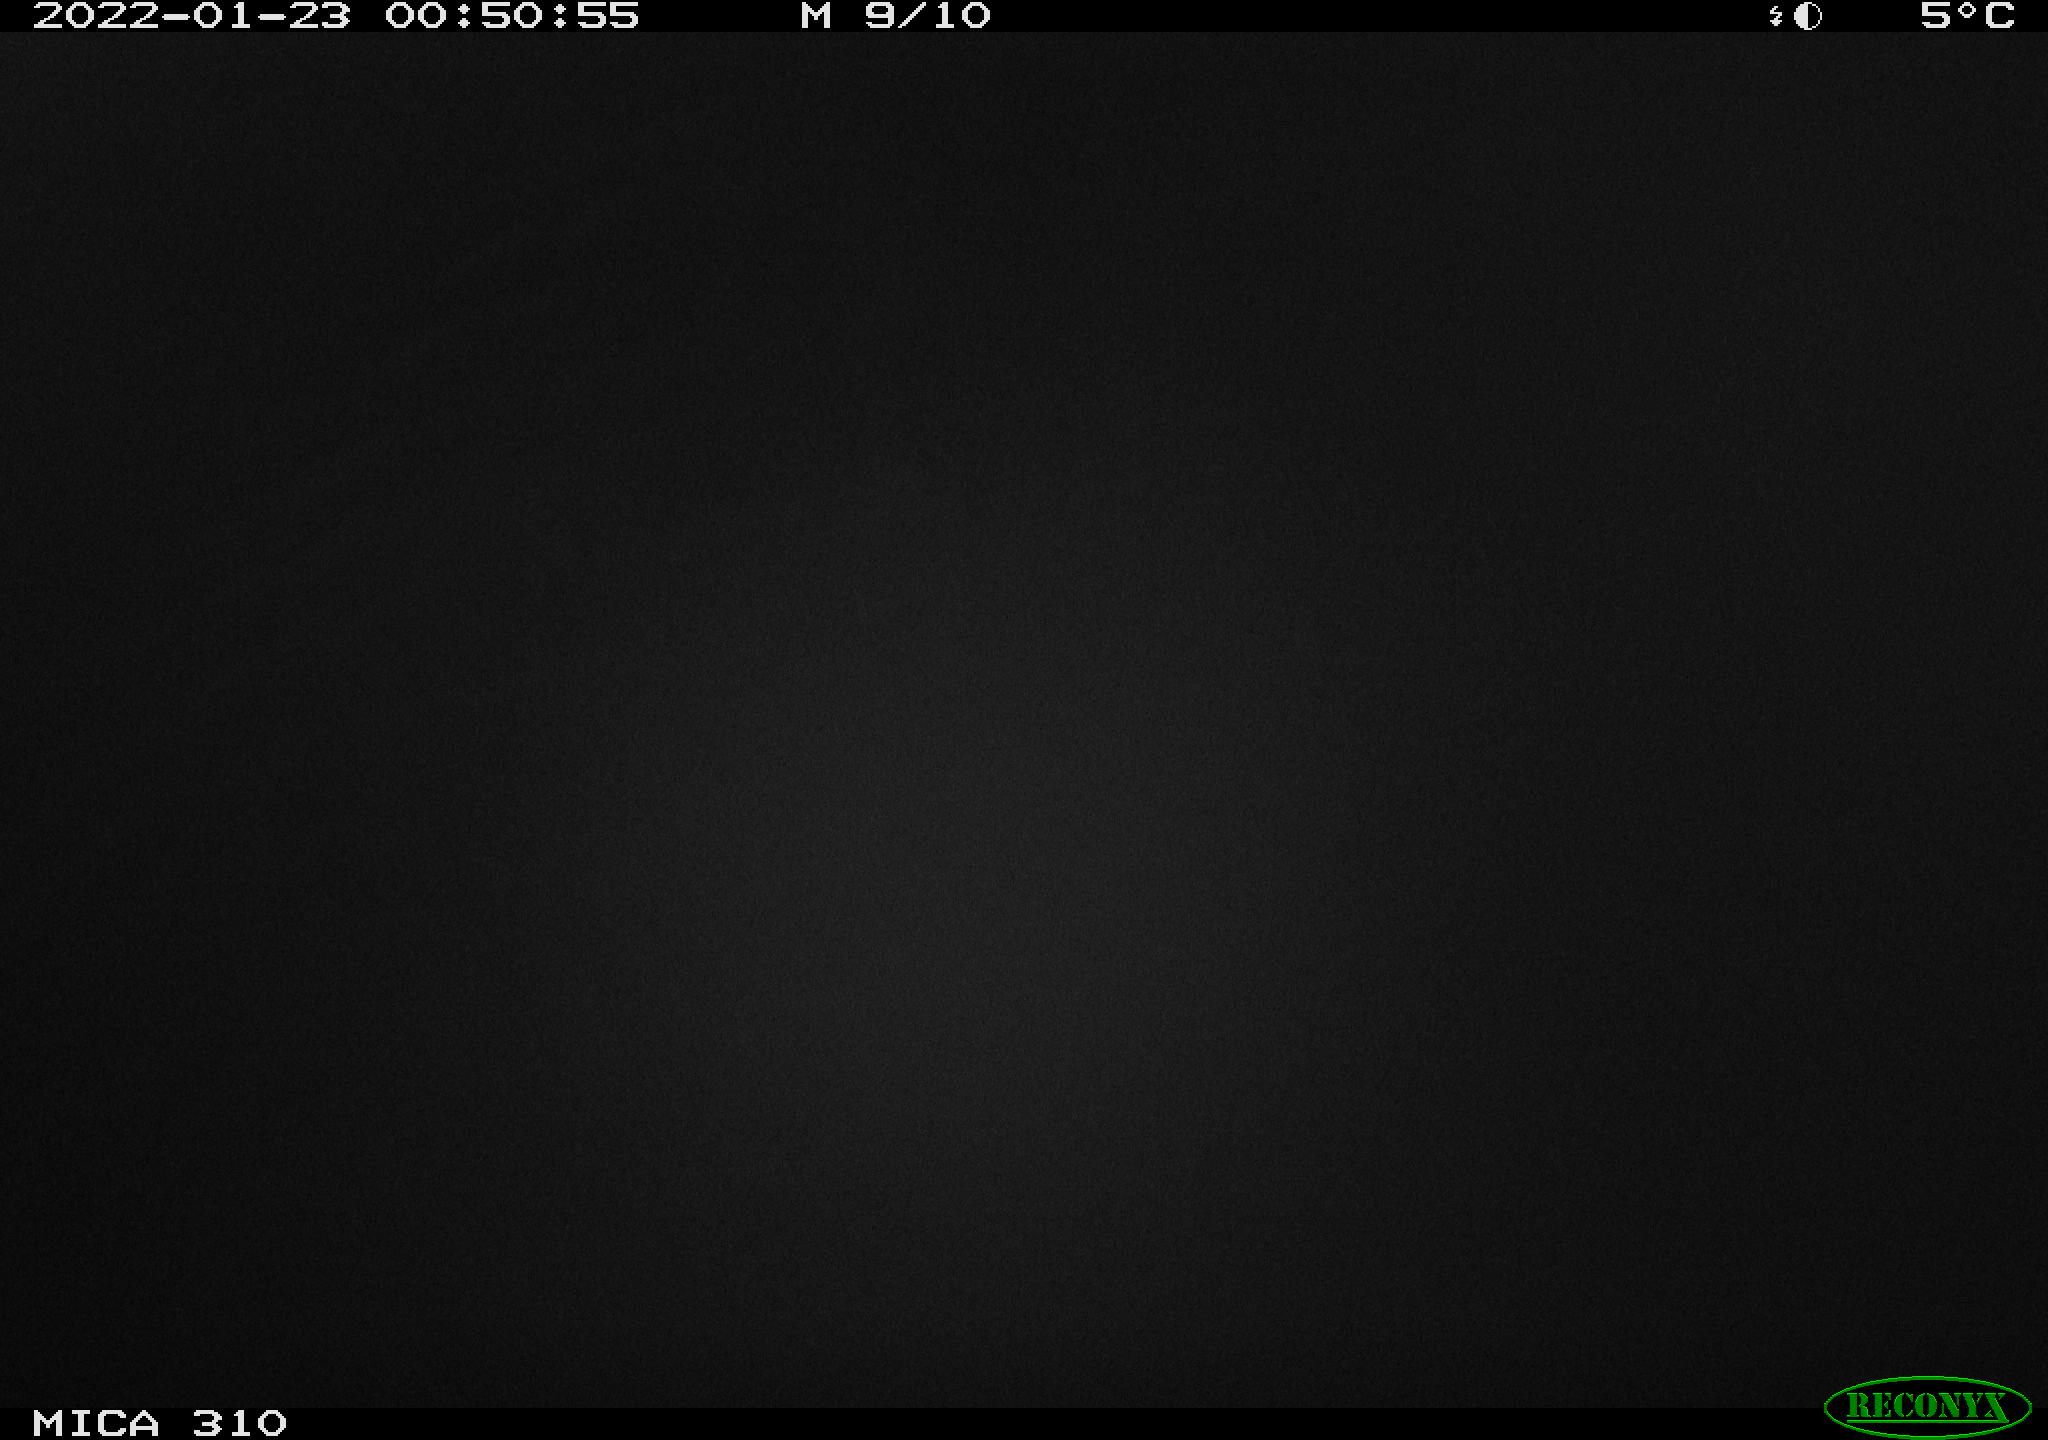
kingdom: Animalia
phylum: Chordata
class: Mammalia
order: Rodentia
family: Cricetidae
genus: Ondatra
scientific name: Ondatra zibethicus
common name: Muskrat
